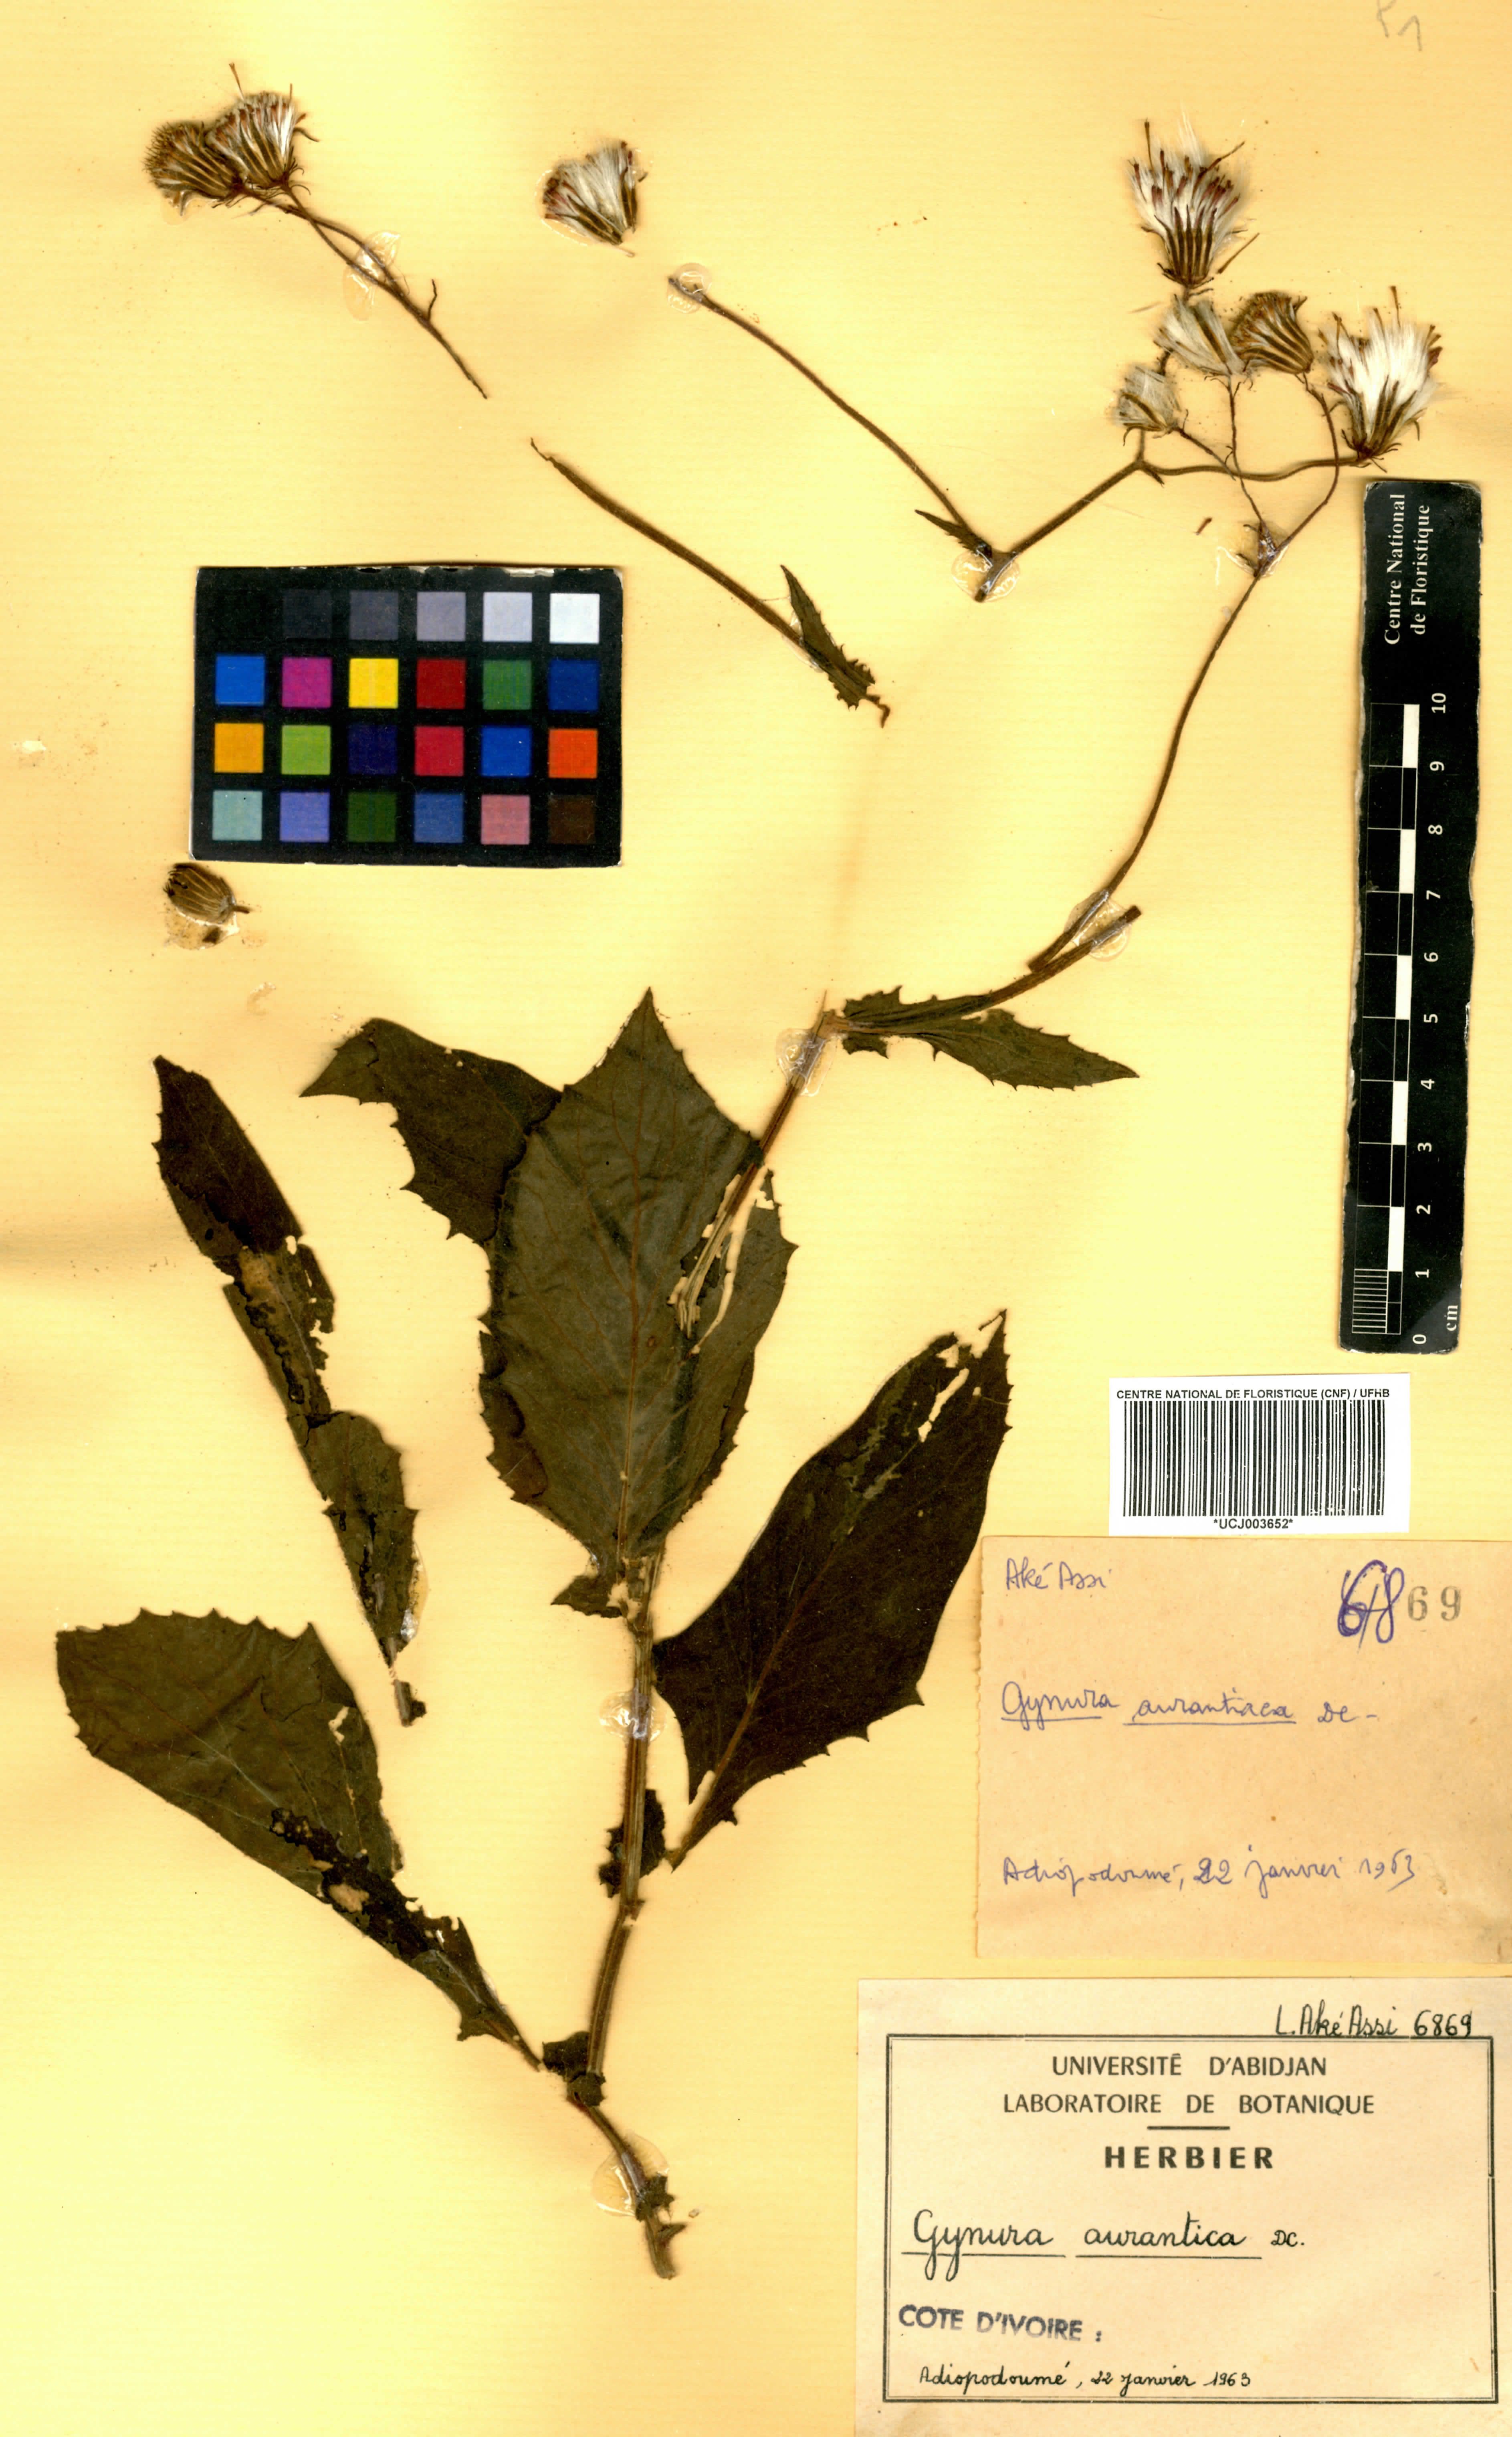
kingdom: Plantae
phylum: Tracheophyta
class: Magnoliopsida
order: Asterales
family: Asteraceae
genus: Gynura
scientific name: Gynura aurantiaca
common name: Velvetplant
